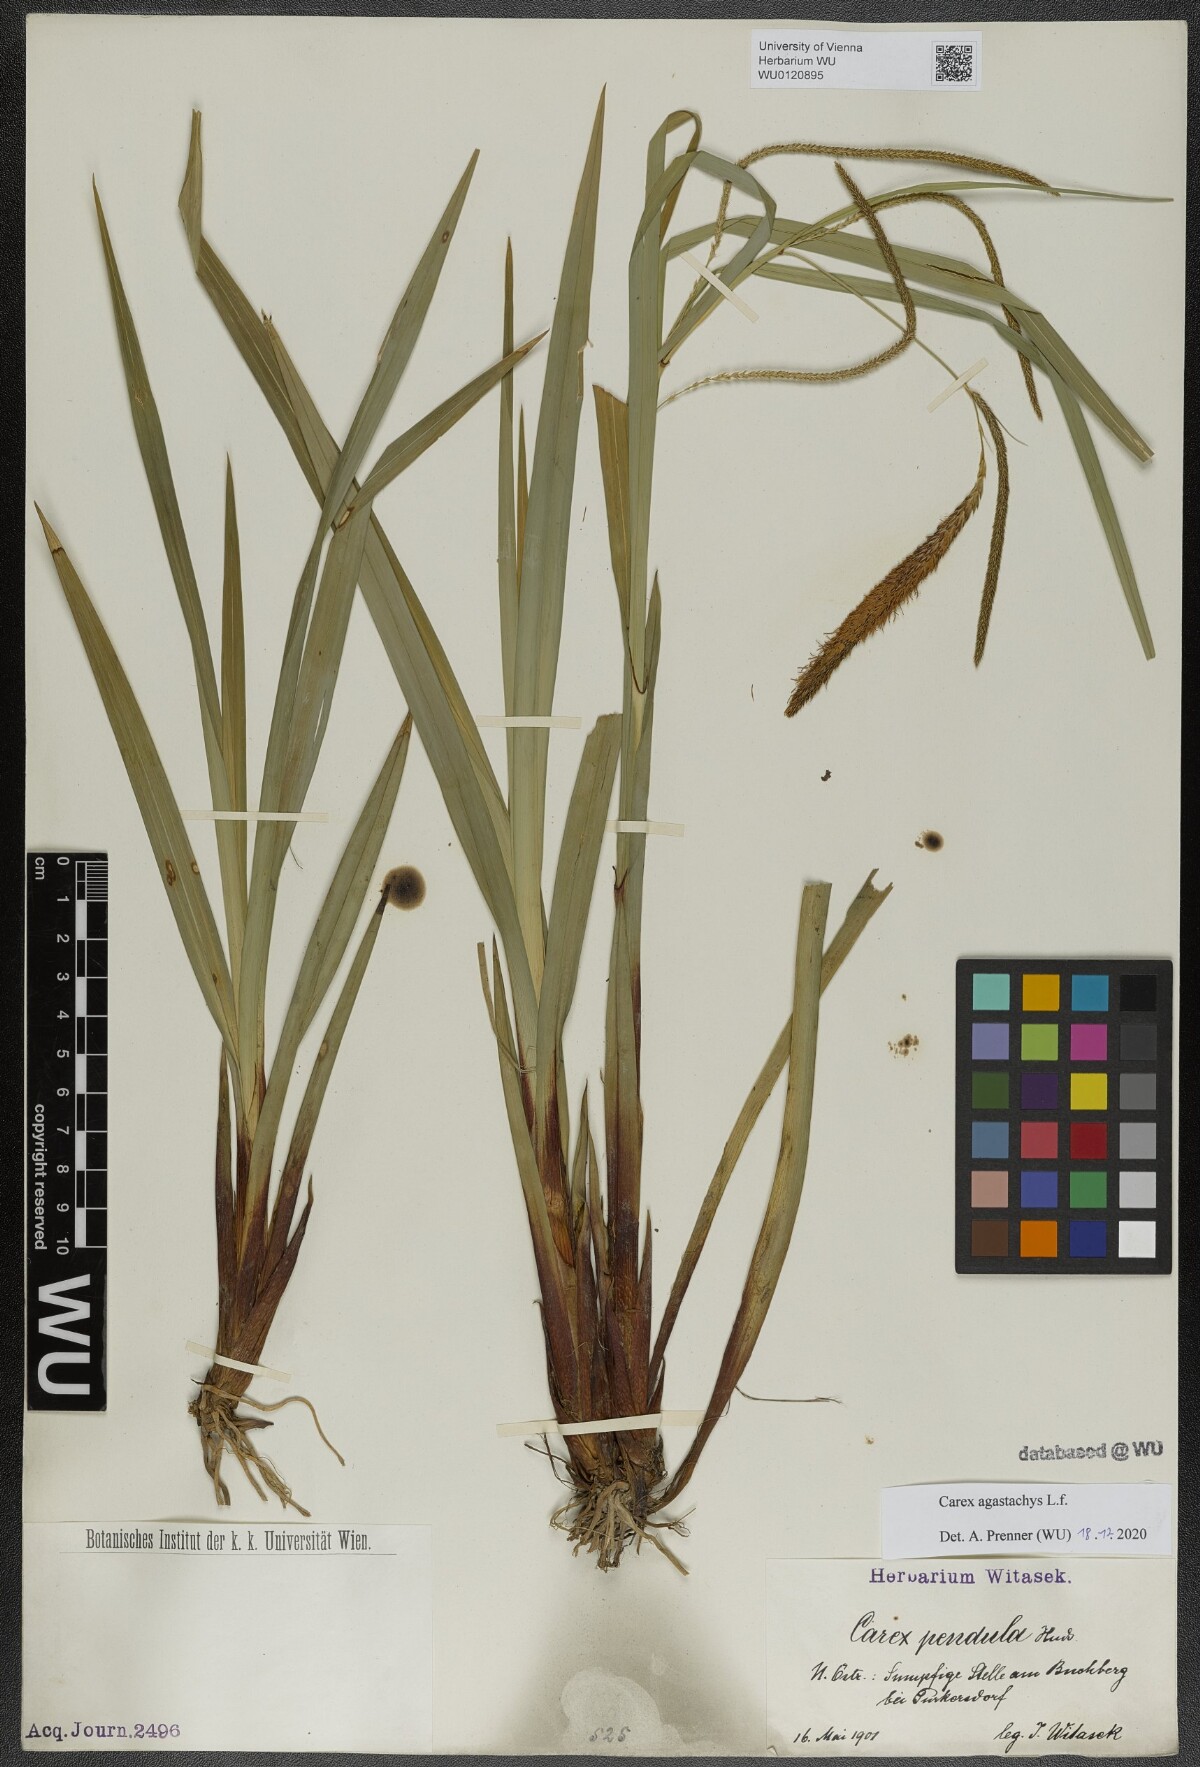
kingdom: Plantae
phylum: Tracheophyta
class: Liliopsida
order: Poales
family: Cyperaceae
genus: Carex
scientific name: Carex agastachys
